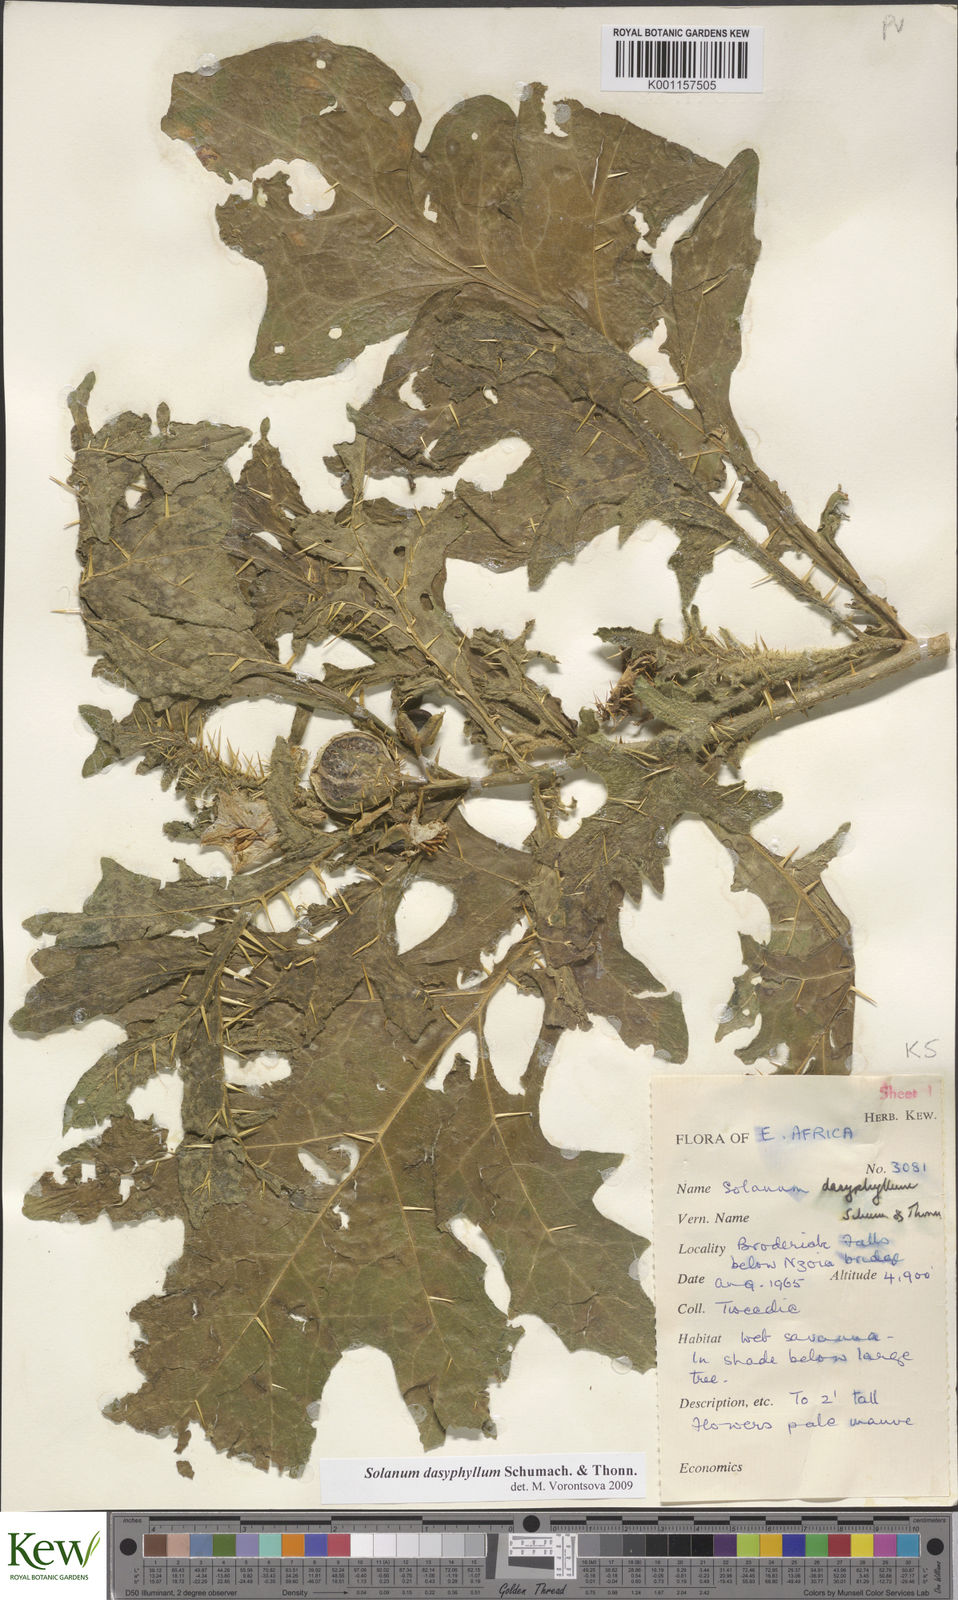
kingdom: Plantae
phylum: Tracheophyta
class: Magnoliopsida
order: Solanales
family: Solanaceae
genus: Solanum
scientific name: Solanum dasyphyllum
